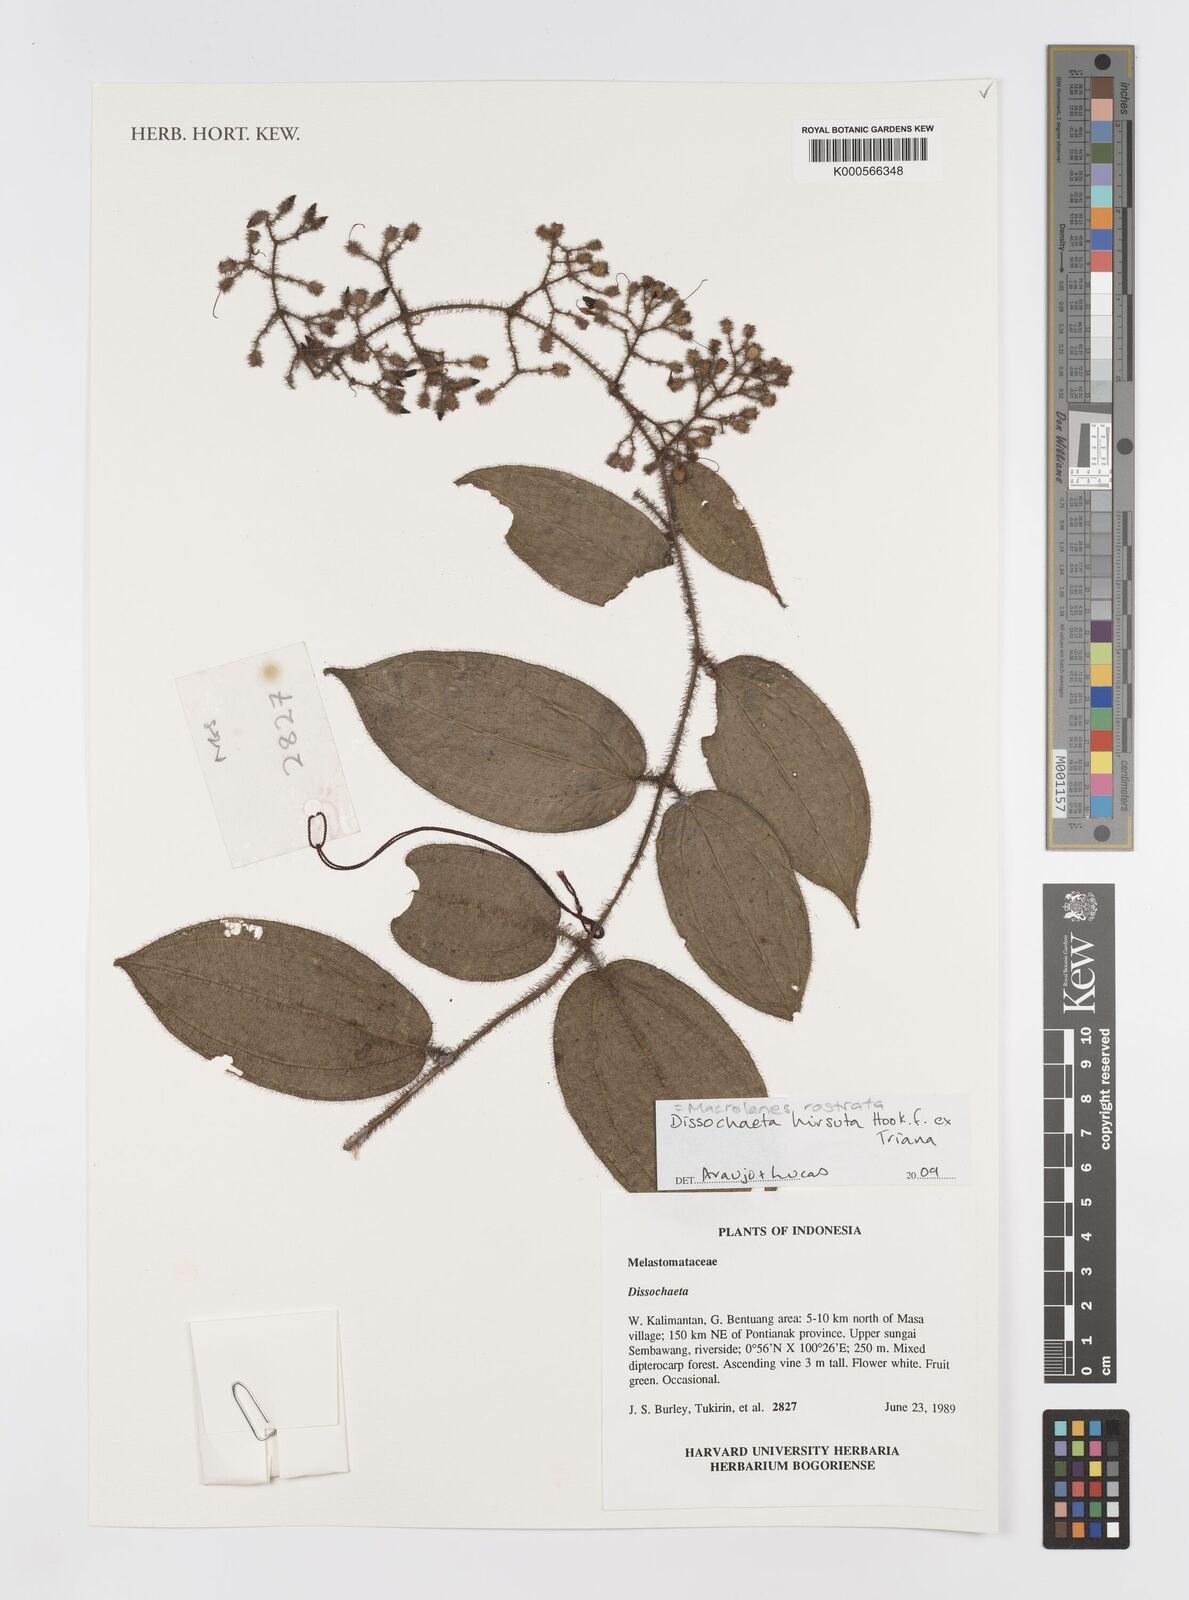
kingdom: Plantae
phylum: Tracheophyta
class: Magnoliopsida
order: Myrtales
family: Melastomataceae
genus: Macrolenes
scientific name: Macrolenes rostrata
